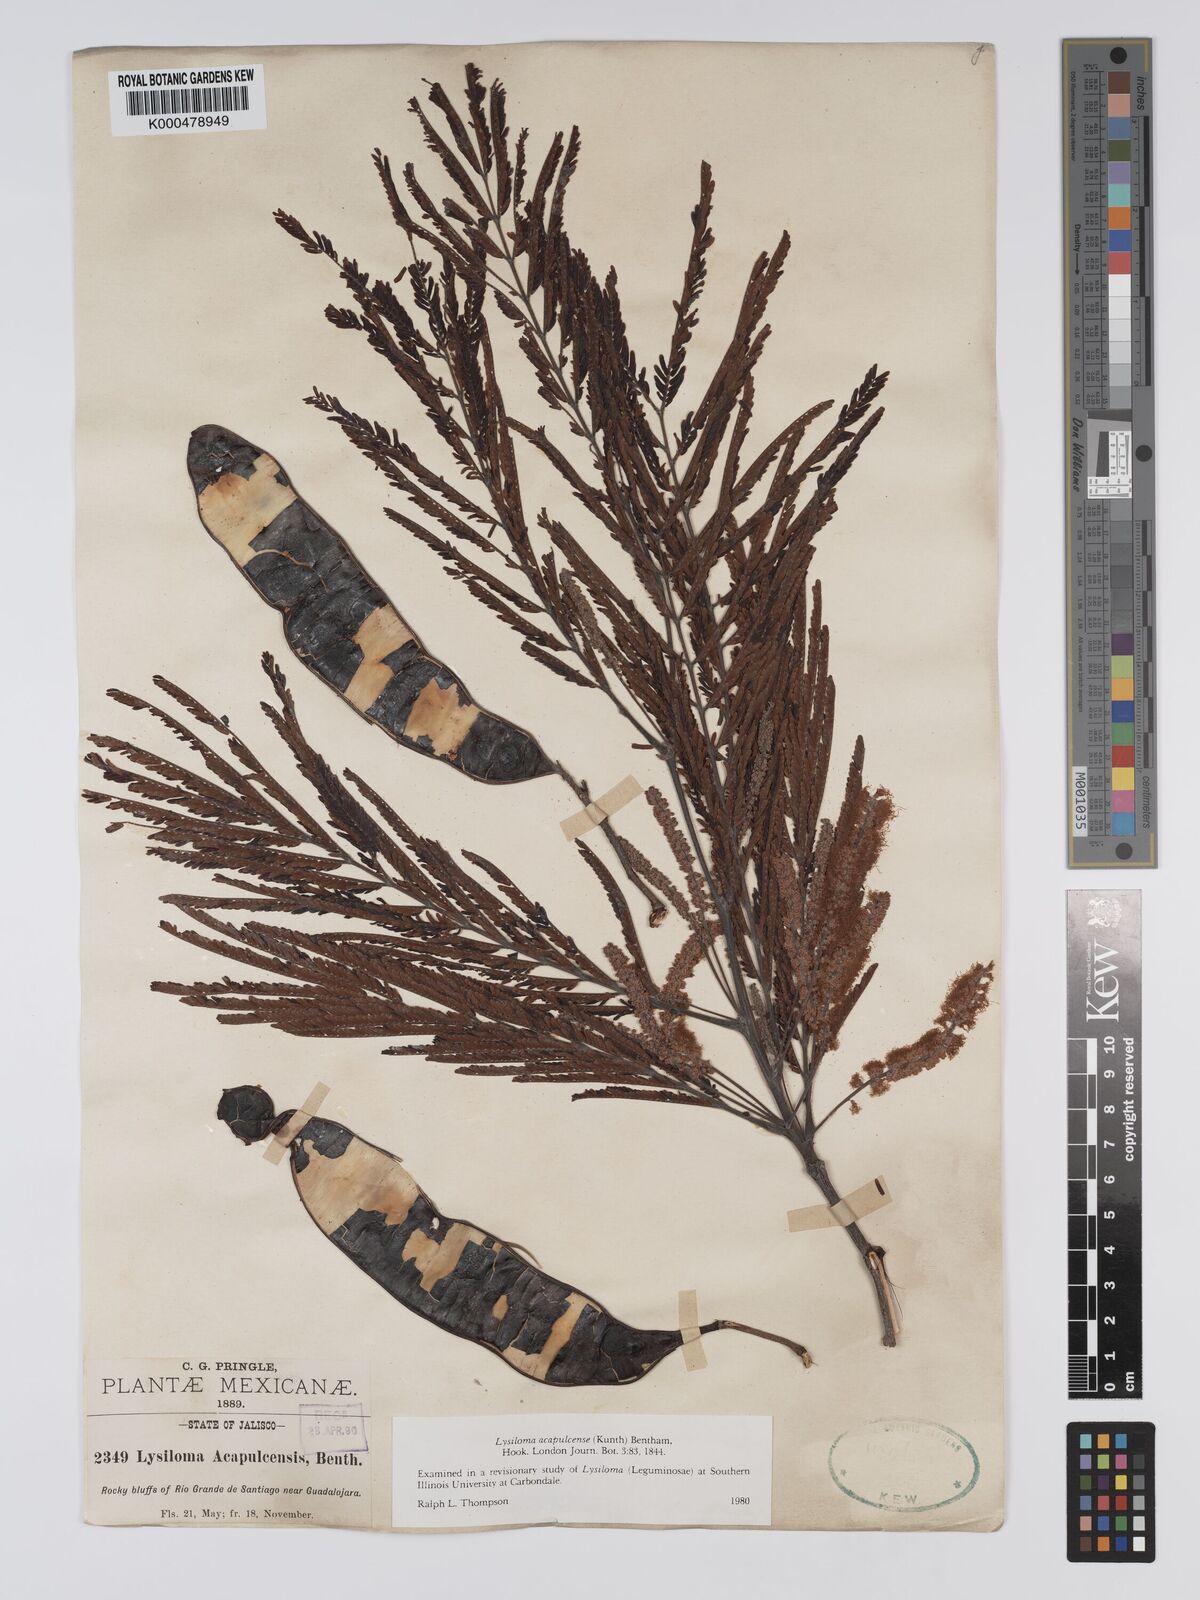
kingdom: Plantae
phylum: Tracheophyta
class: Magnoliopsida
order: Fabales
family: Fabaceae
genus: Lysiloma
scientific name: Lysiloma
